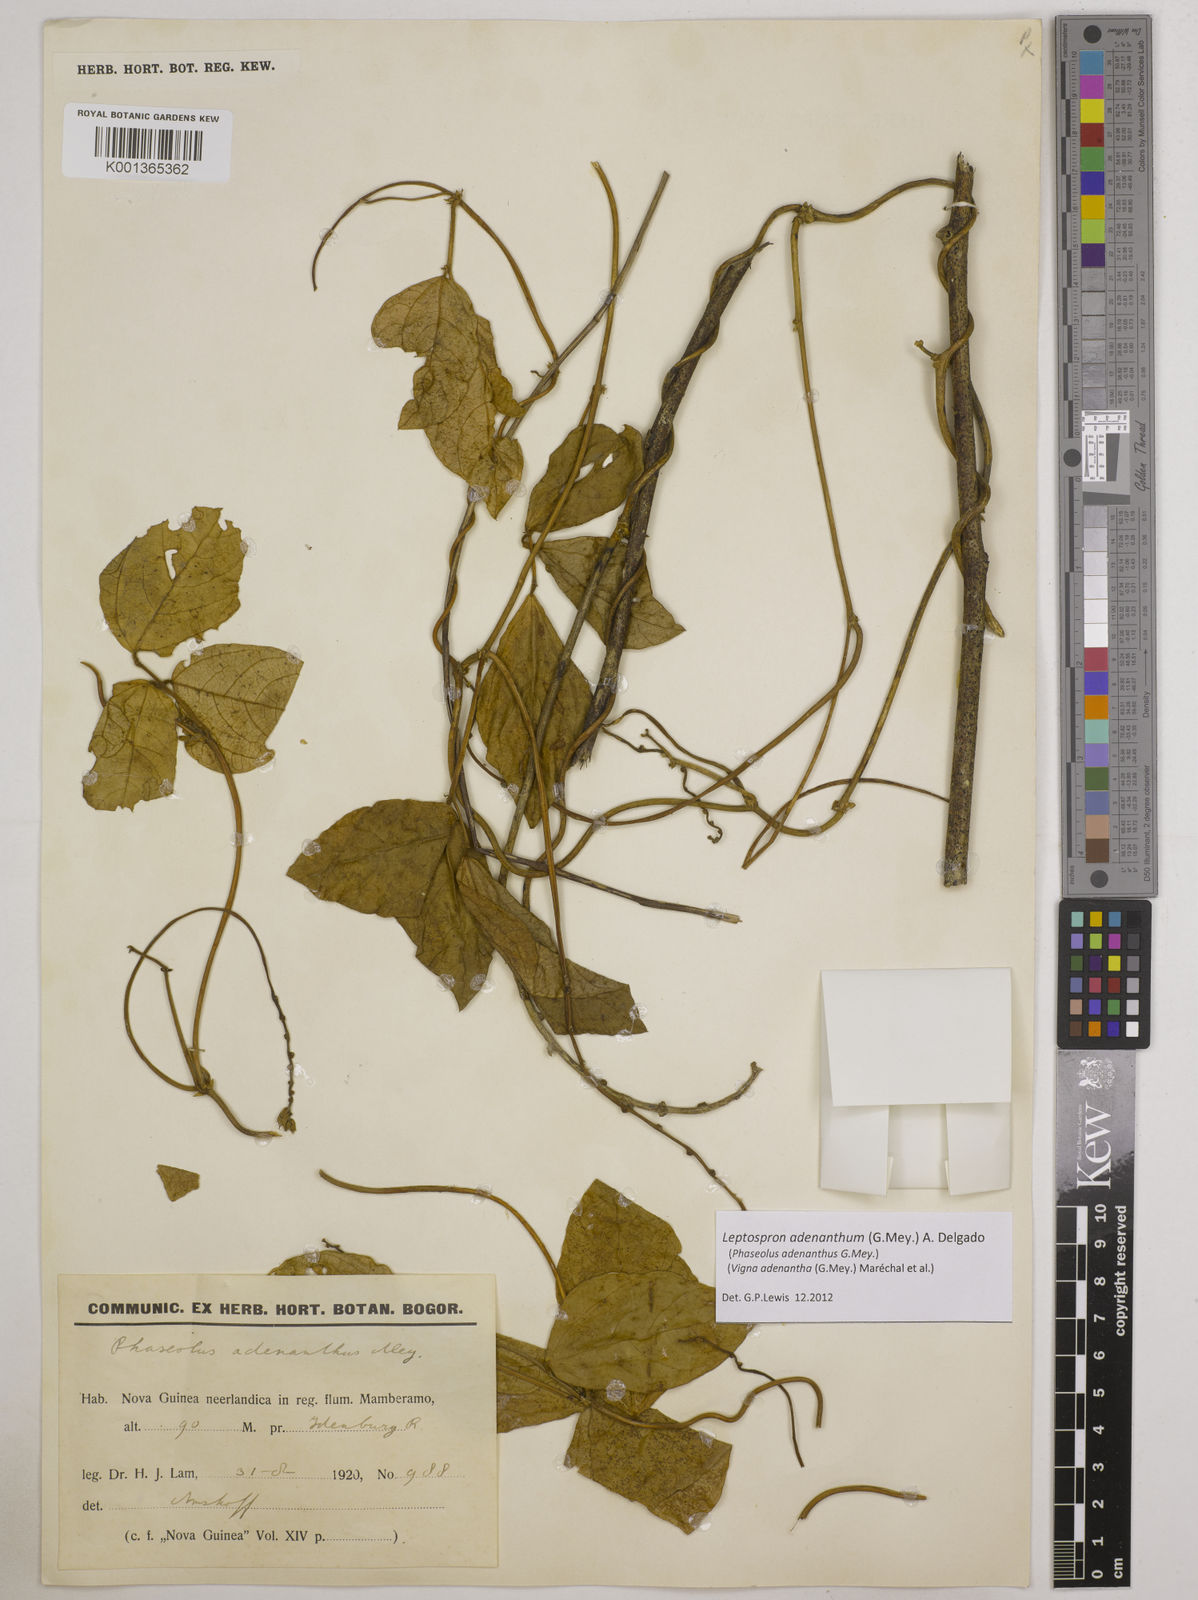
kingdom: Plantae
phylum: Tracheophyta
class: Magnoliopsida
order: Fabales
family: Fabaceae
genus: Leptospron
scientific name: Leptospron adenanthum
